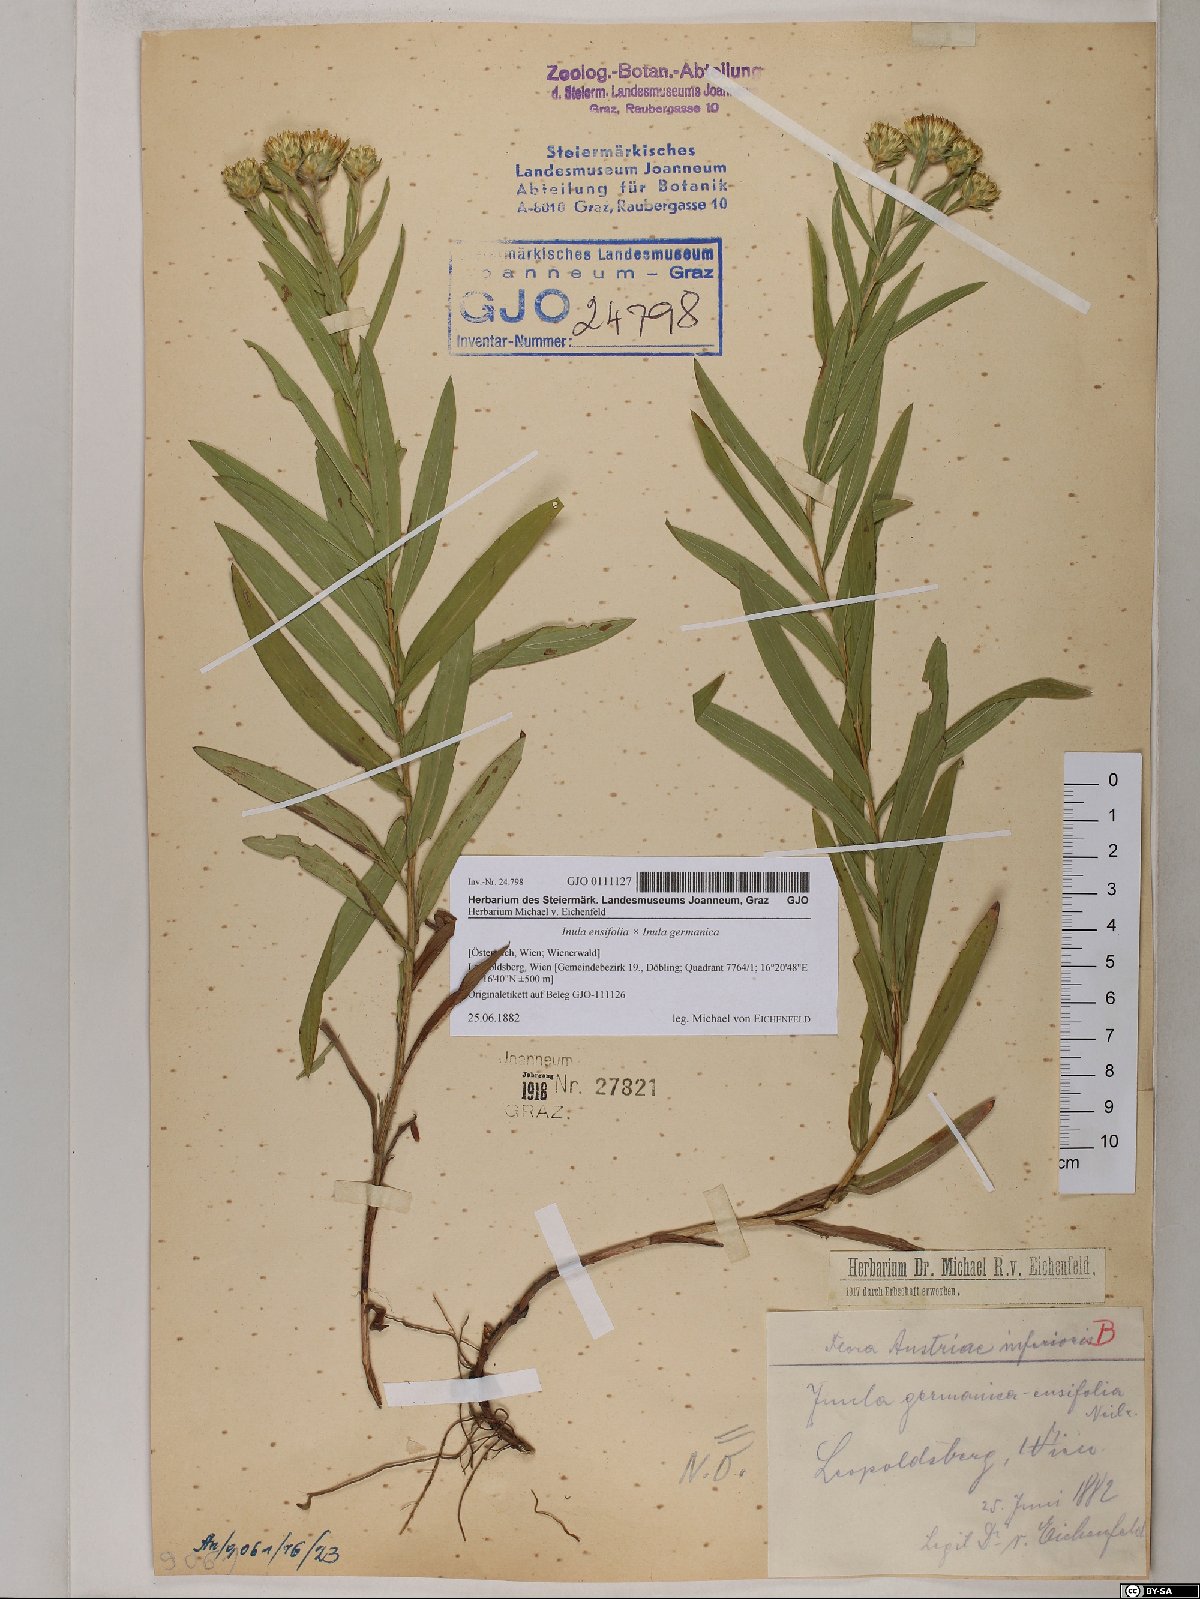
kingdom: Plantae
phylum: Tracheophyta
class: Magnoliopsida
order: Asterales
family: Asteraceae
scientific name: Asteraceae
